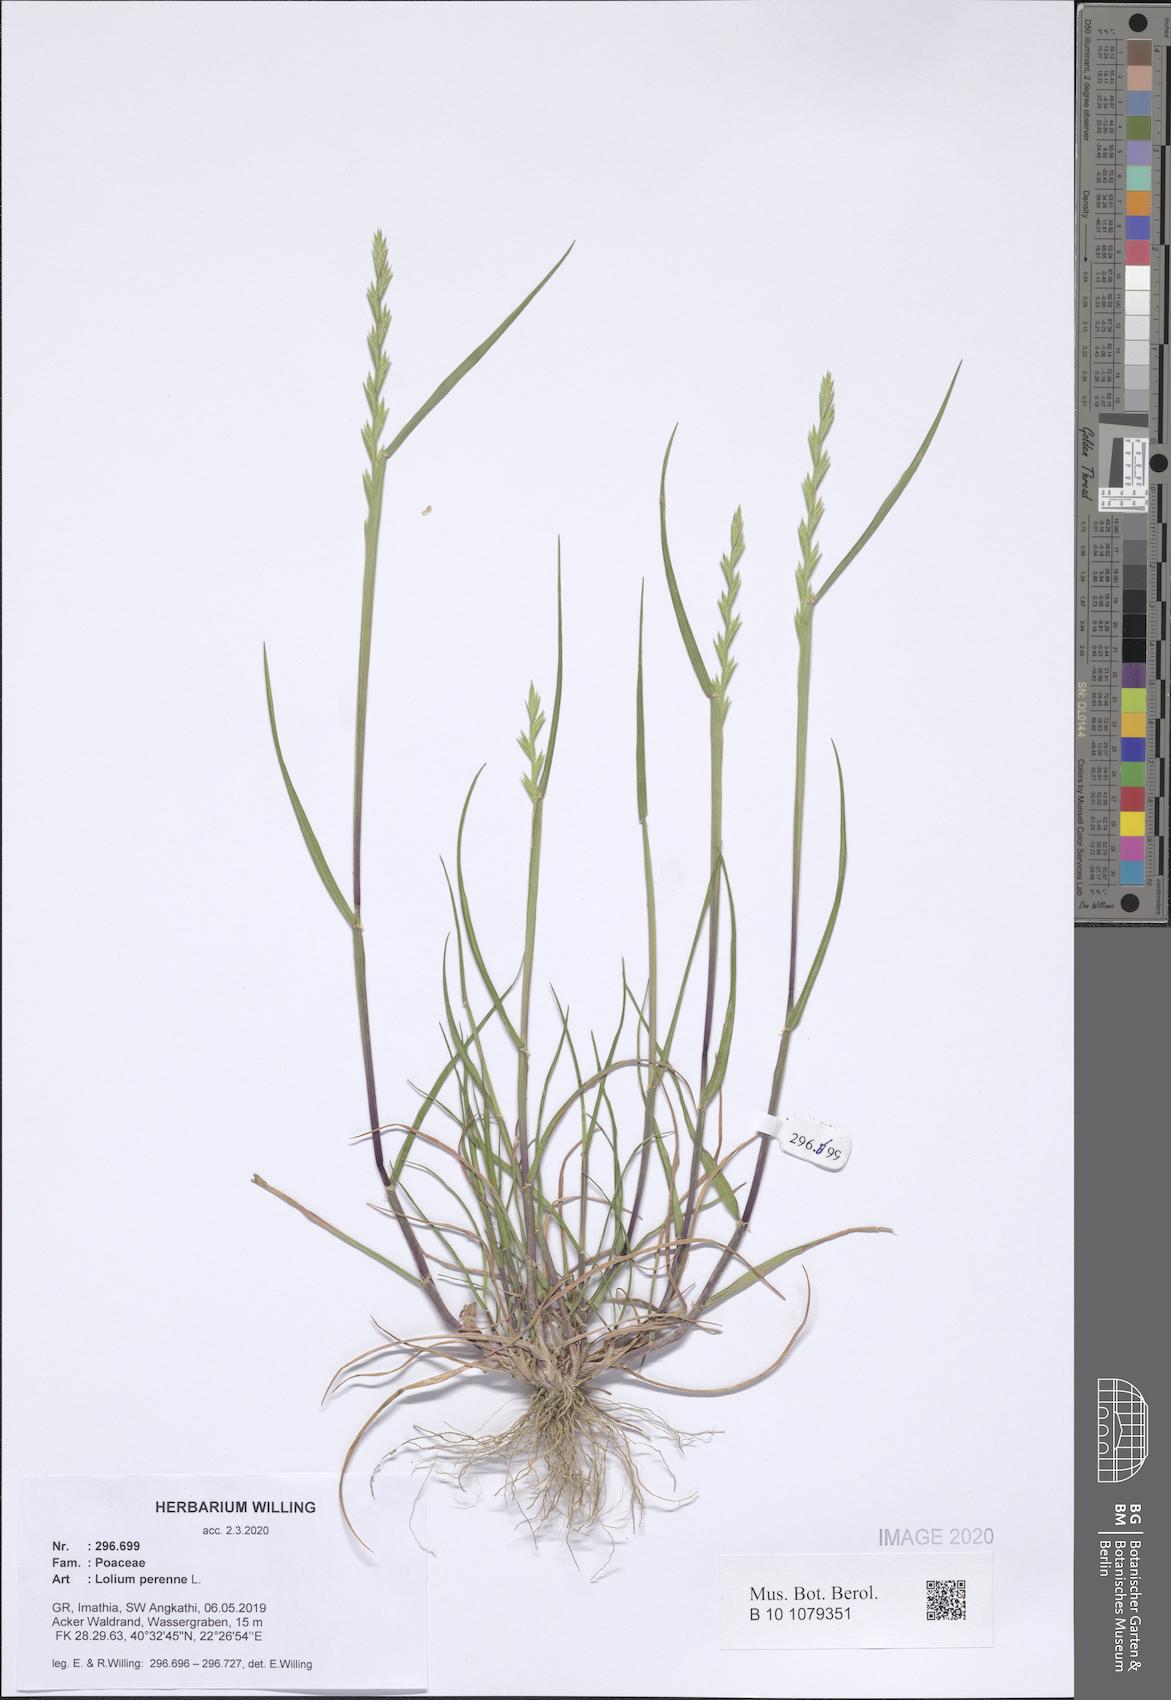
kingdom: Plantae
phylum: Tracheophyta
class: Liliopsida
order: Poales
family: Poaceae
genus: Lolium
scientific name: Lolium perenne
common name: Perennial ryegrass
